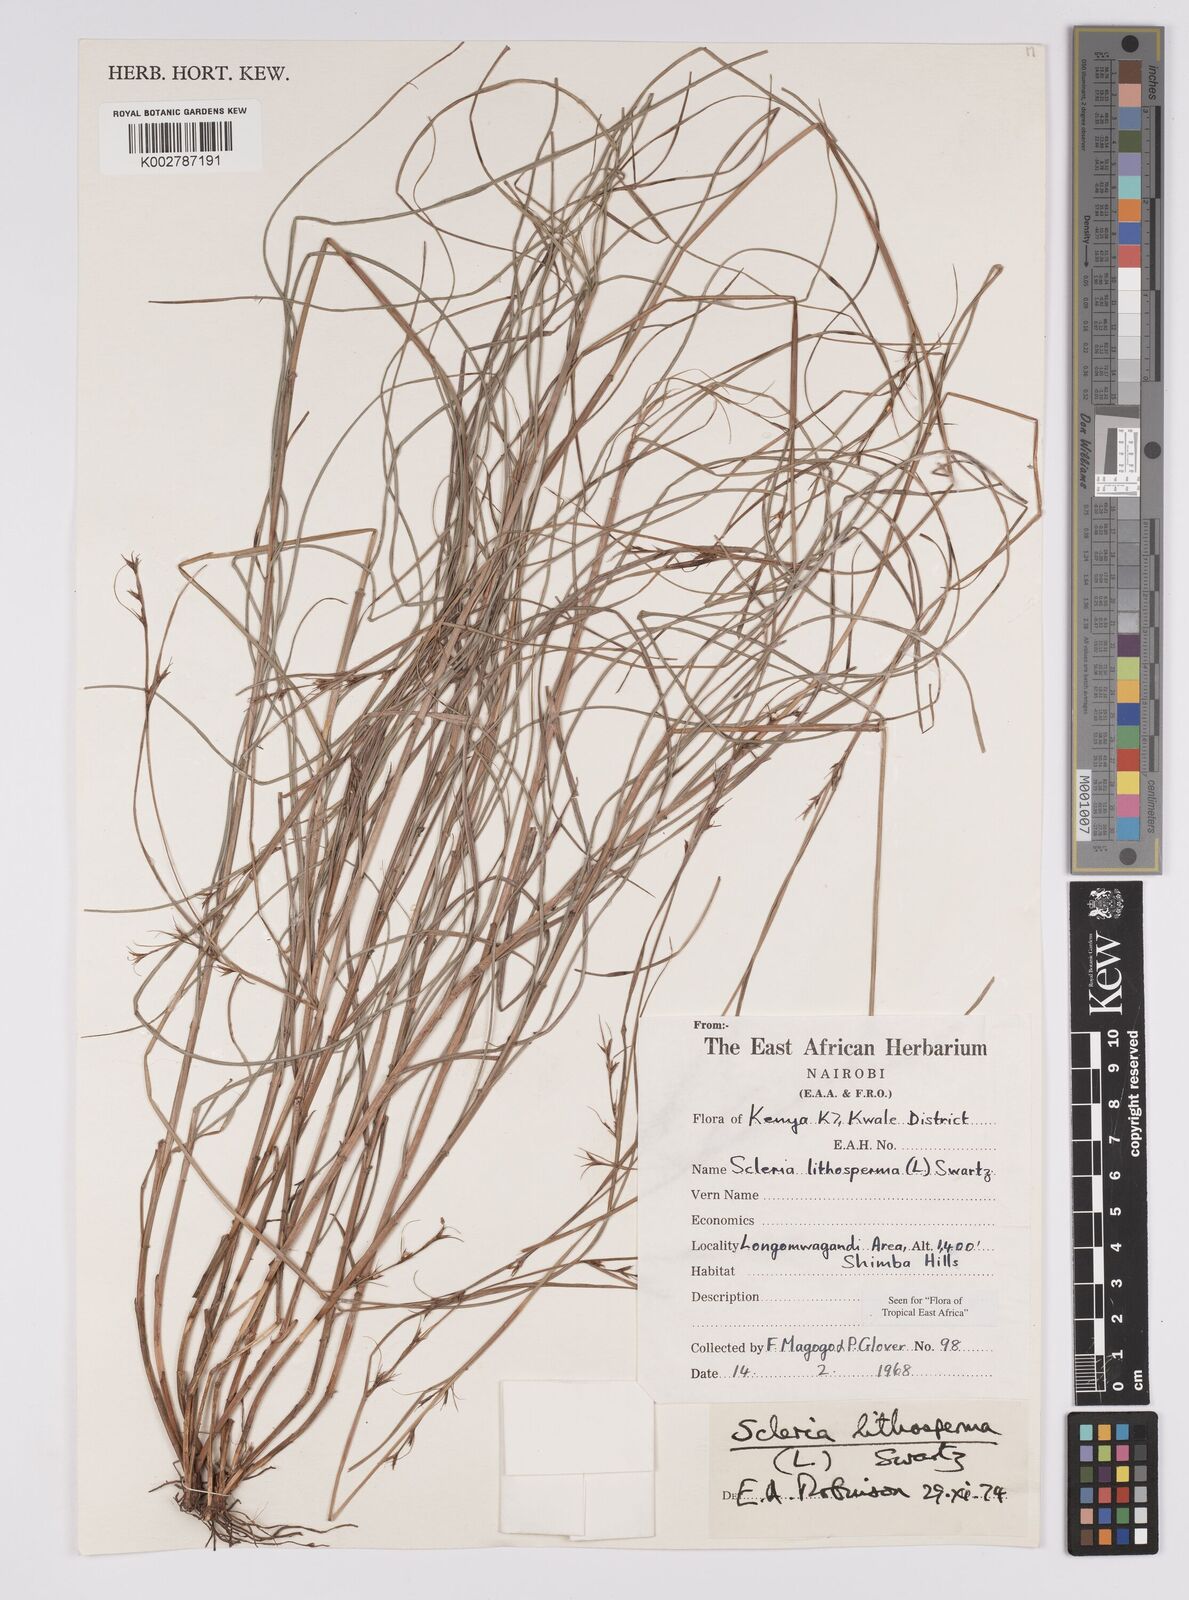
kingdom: Plantae
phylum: Tracheophyta
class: Liliopsida
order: Poales
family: Cyperaceae
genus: Scleria
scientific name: Scleria lithosperma
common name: Florida keys nut-rush
